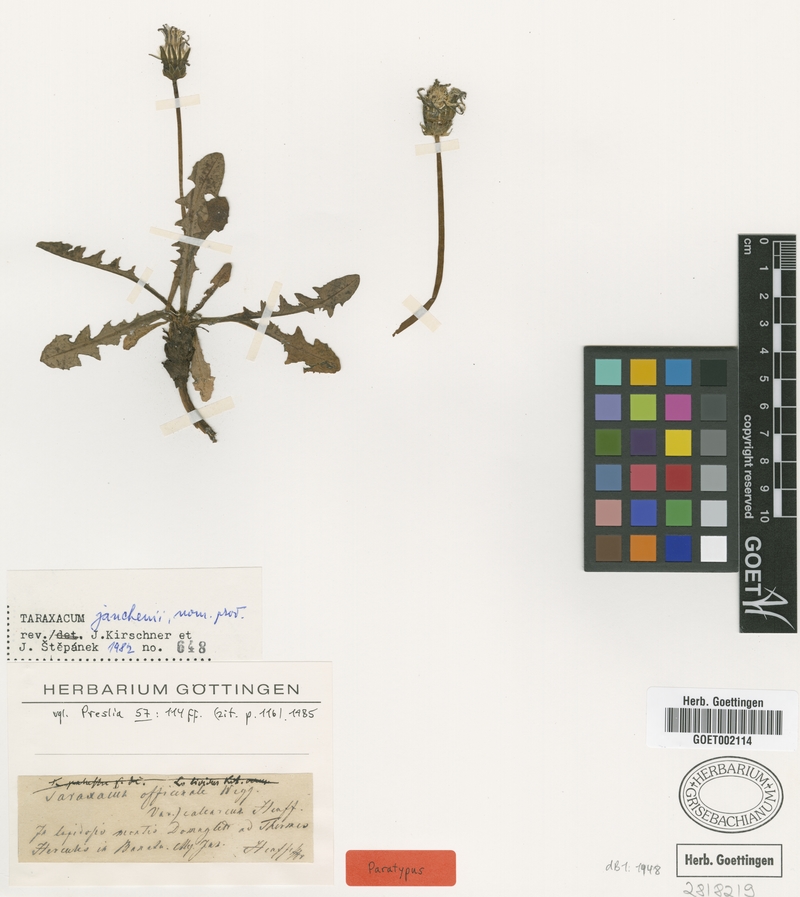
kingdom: Plantae
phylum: Tracheophyta
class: Magnoliopsida
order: Asterales
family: Asteraceae
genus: Taraxacum
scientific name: Taraxacum janchenii
